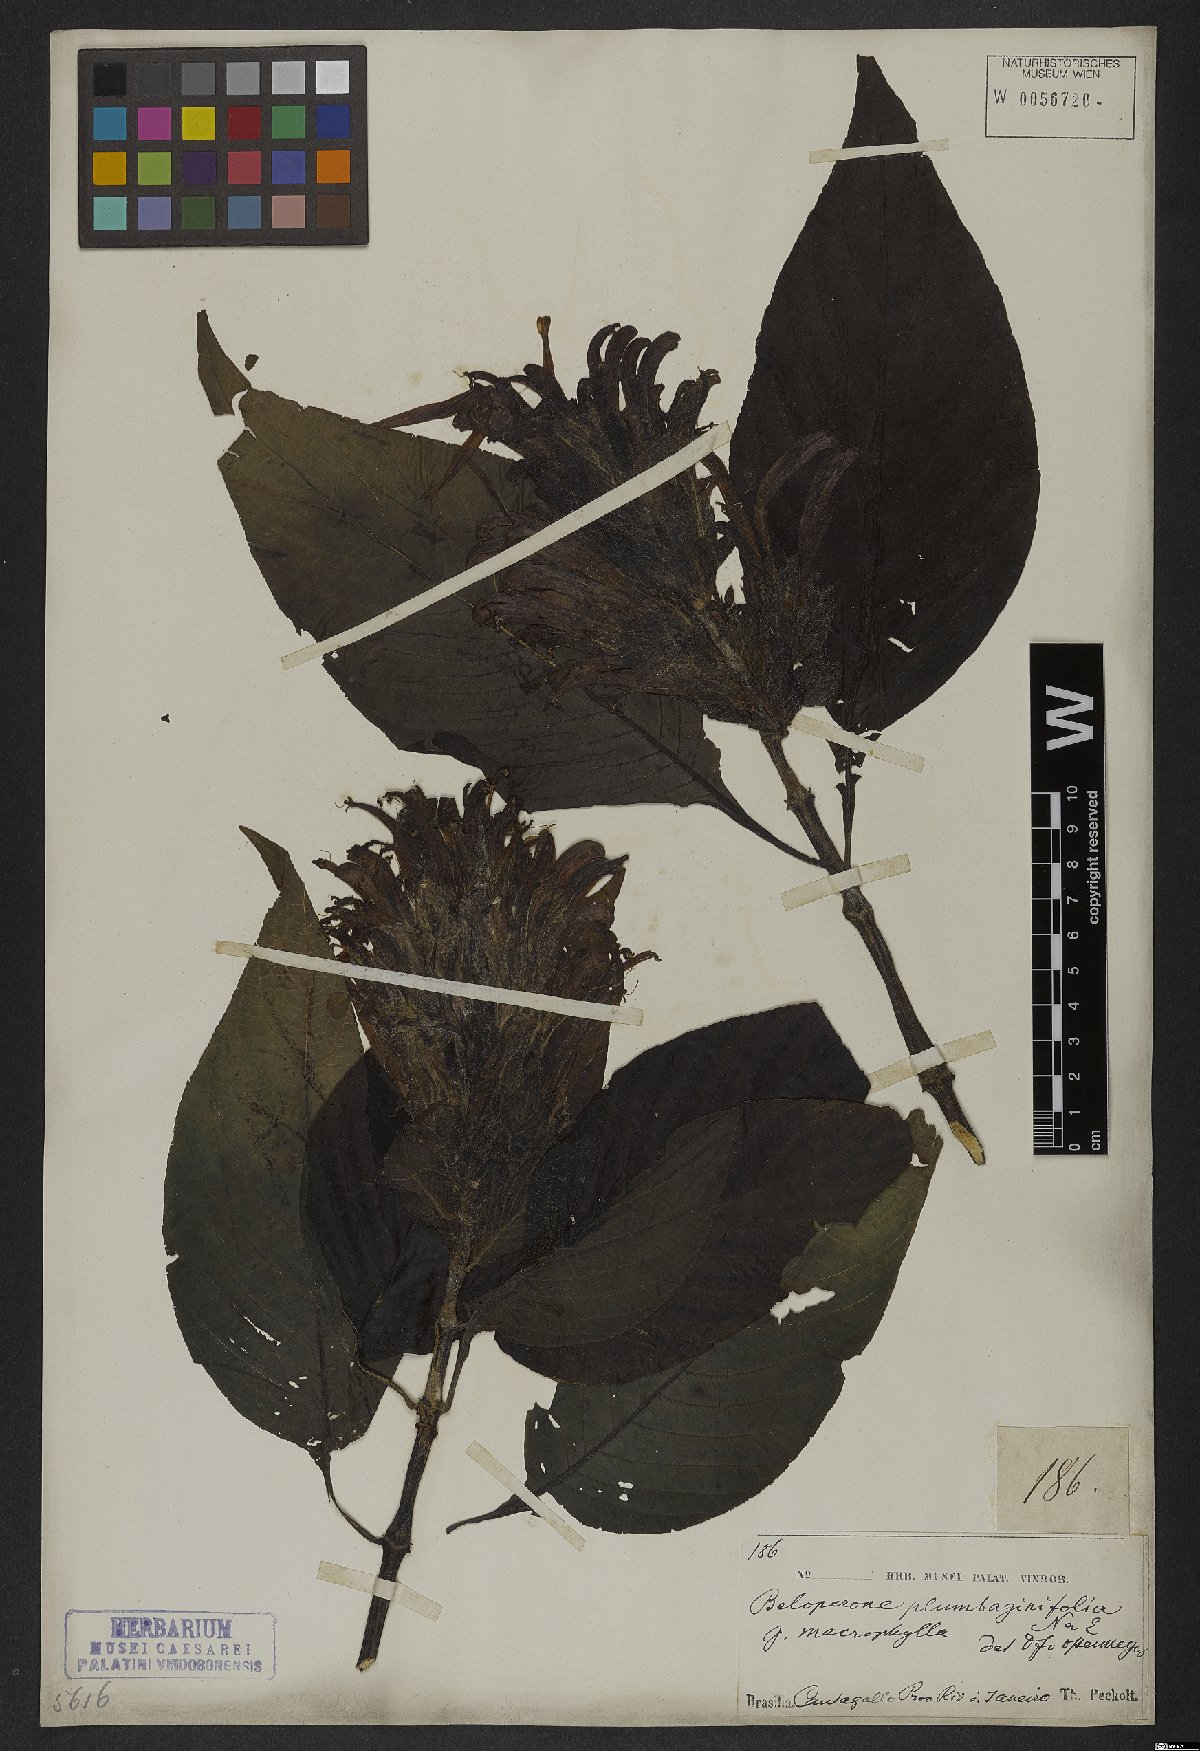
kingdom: Plantae
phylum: Tracheophyta
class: Magnoliopsida
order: Lamiales
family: Acanthaceae
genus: Justicia
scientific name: Justicia plumbaginifolia
